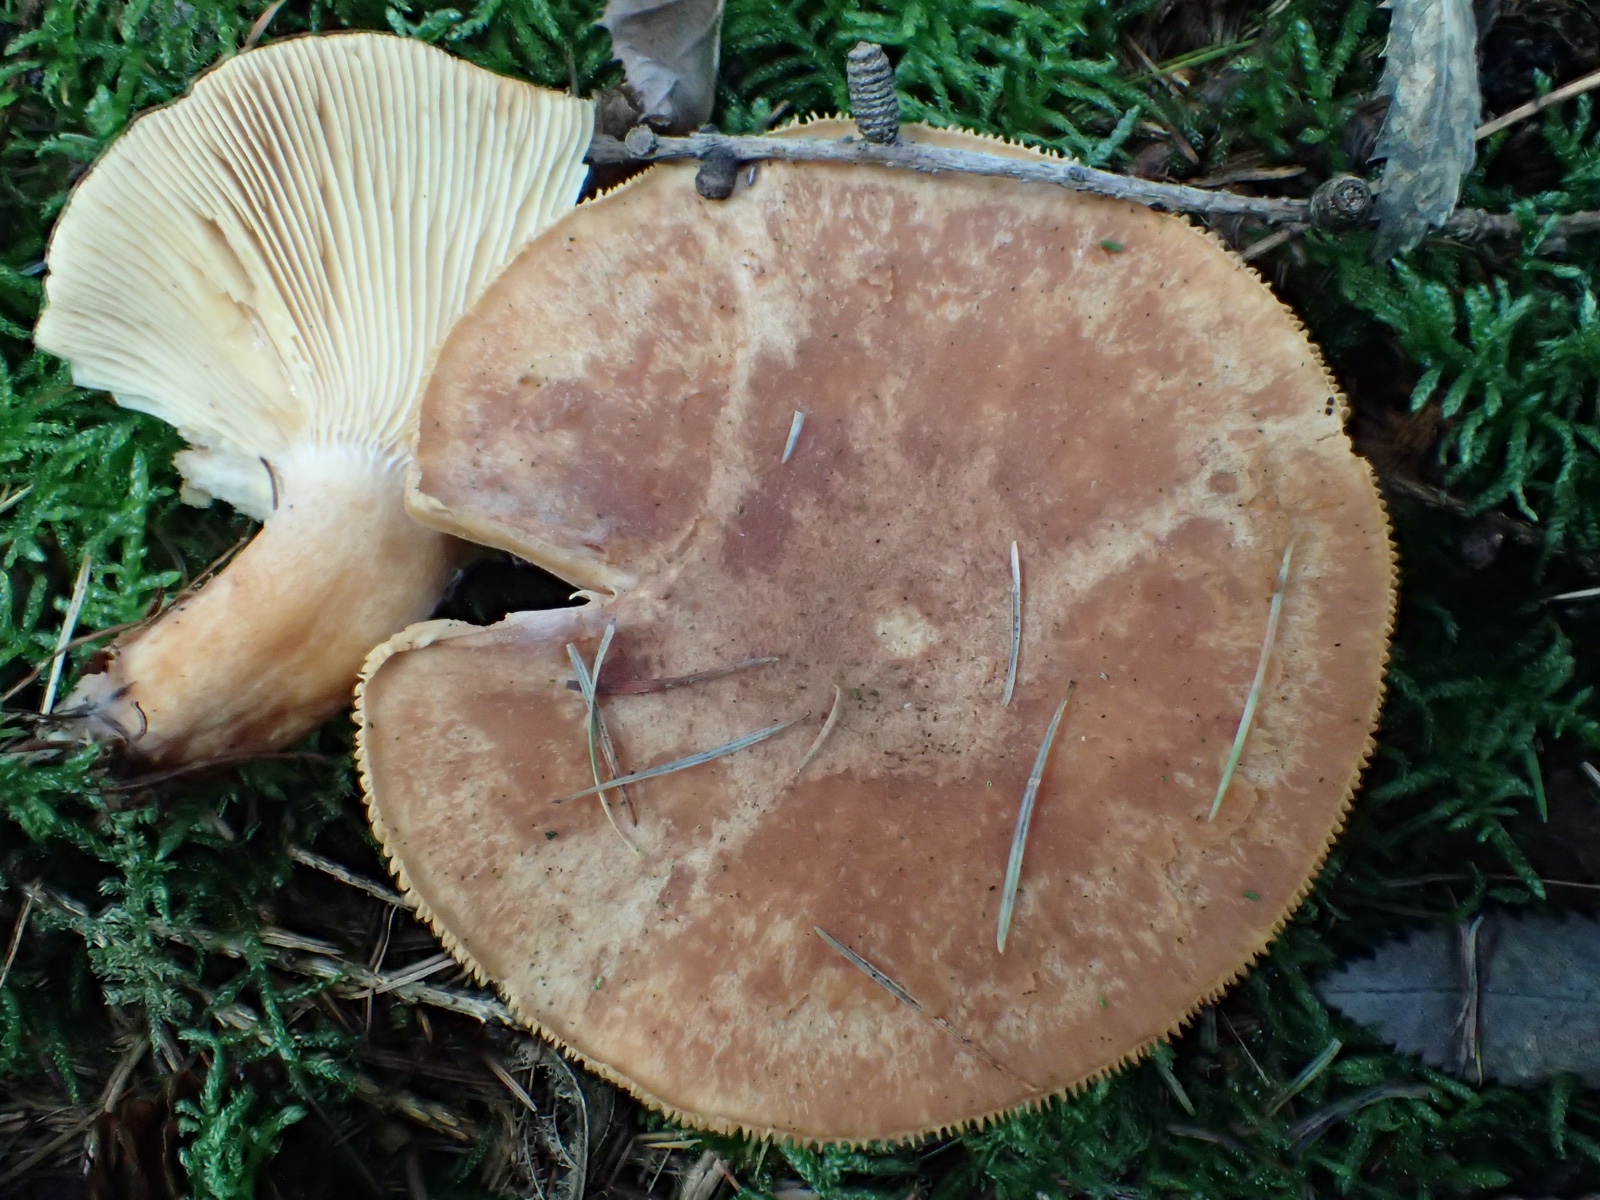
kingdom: Fungi
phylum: Basidiomycota
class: Agaricomycetes
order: Russulales
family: Russulaceae
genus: Lactarius
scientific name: Lactarius helvus
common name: mose-mælkehat
